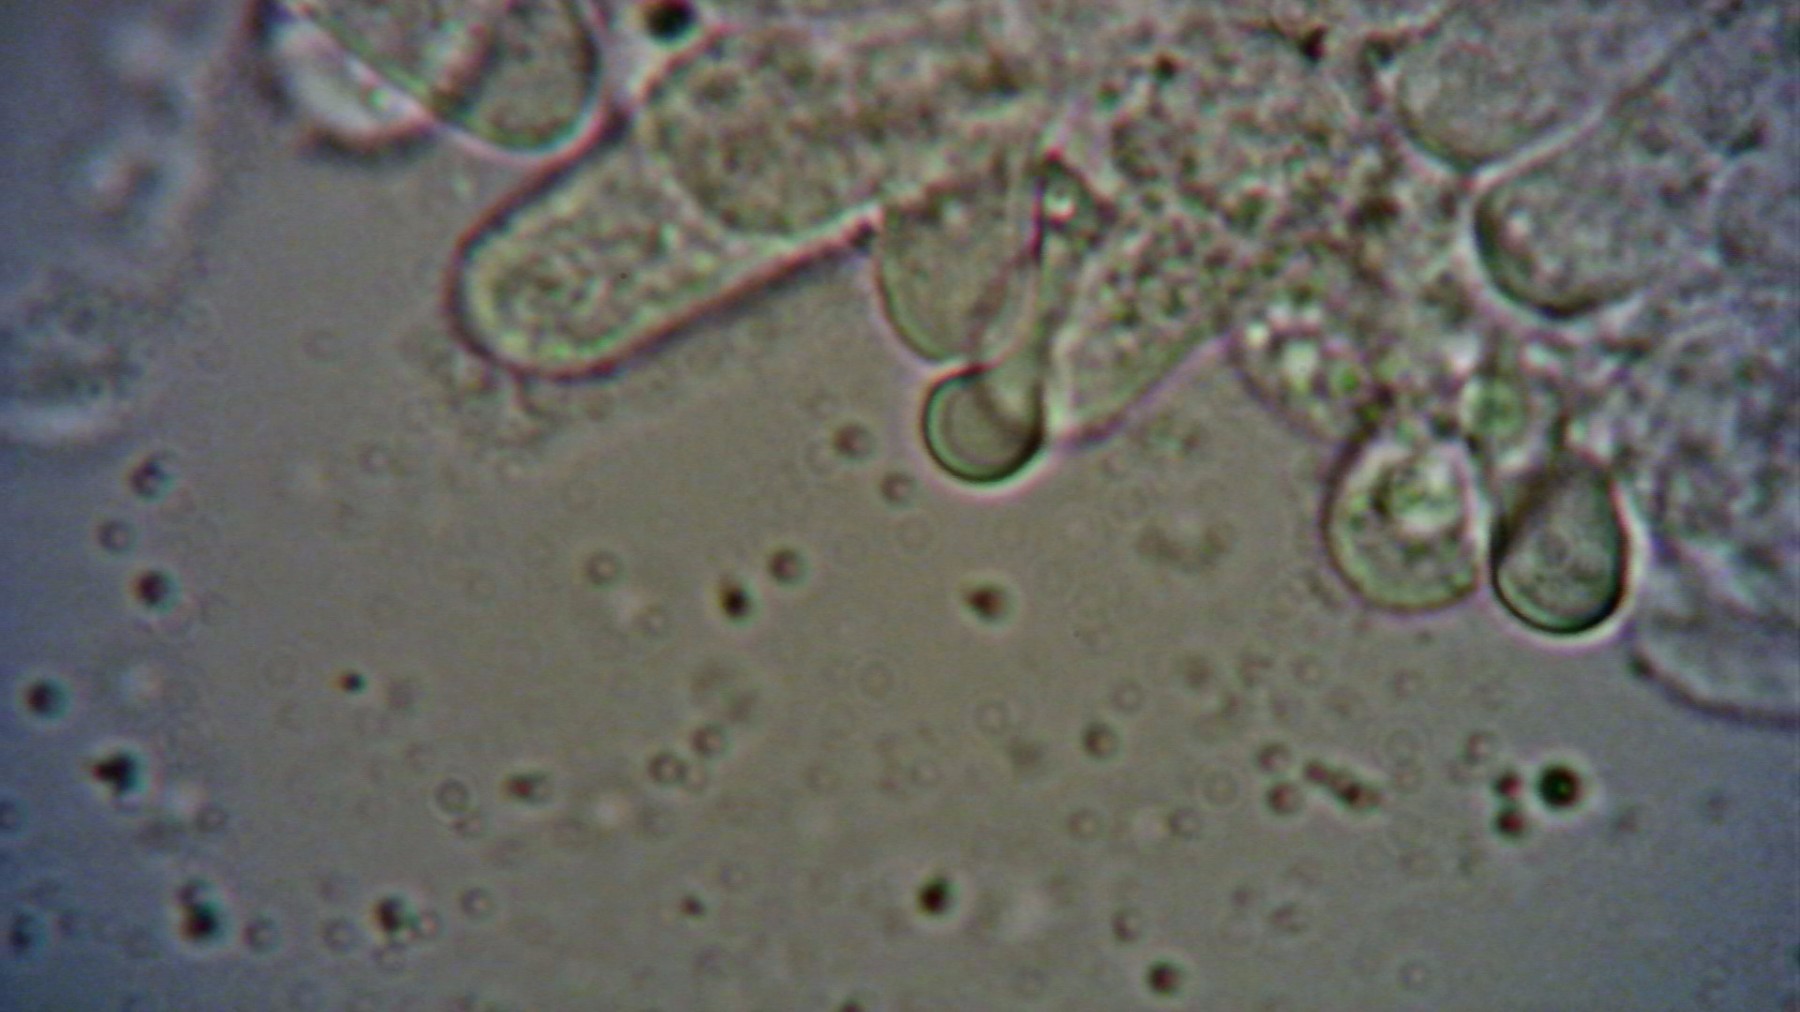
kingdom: Fungi
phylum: Basidiomycota
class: Agaricomycetes
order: Agaricales
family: Entolomataceae
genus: Entoloma
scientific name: Entoloma porphyrogriseum
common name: porfyrgrå rødblad
